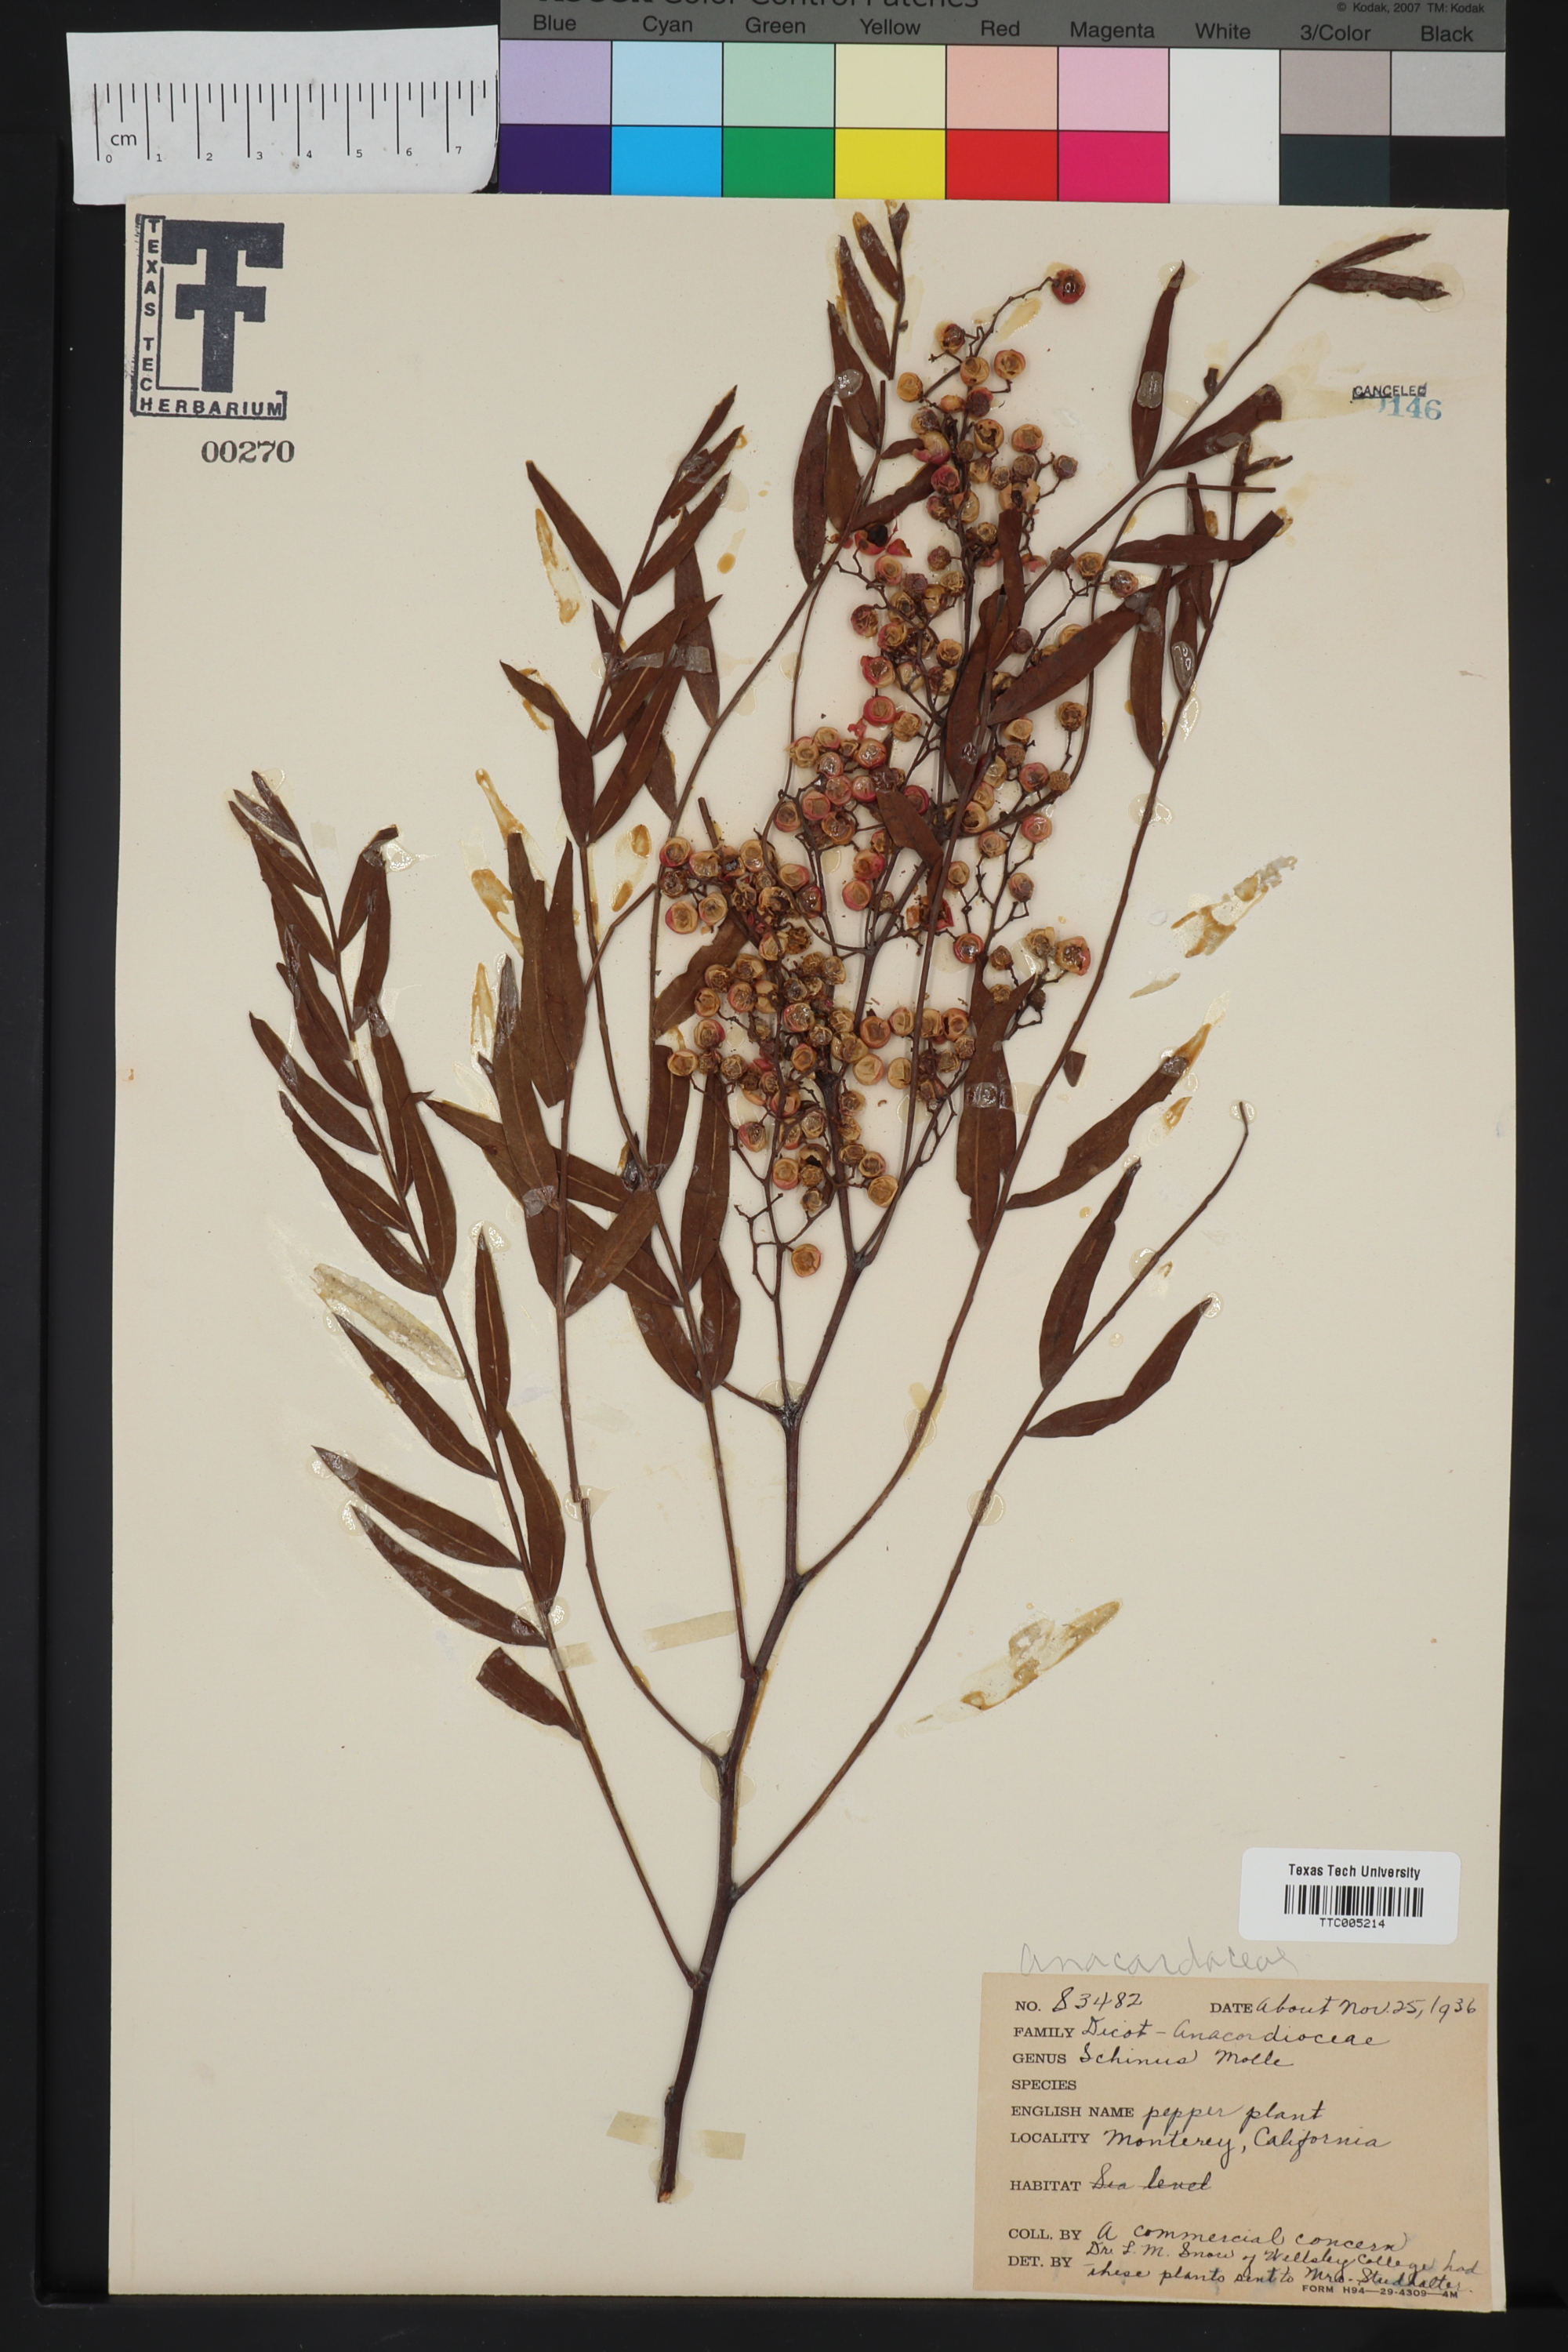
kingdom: Plantae
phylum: Tracheophyta
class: Magnoliopsida
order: Sapindales
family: Anacardiaceae
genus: Schinus
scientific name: Schinus molle
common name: Peruvian peppertree
